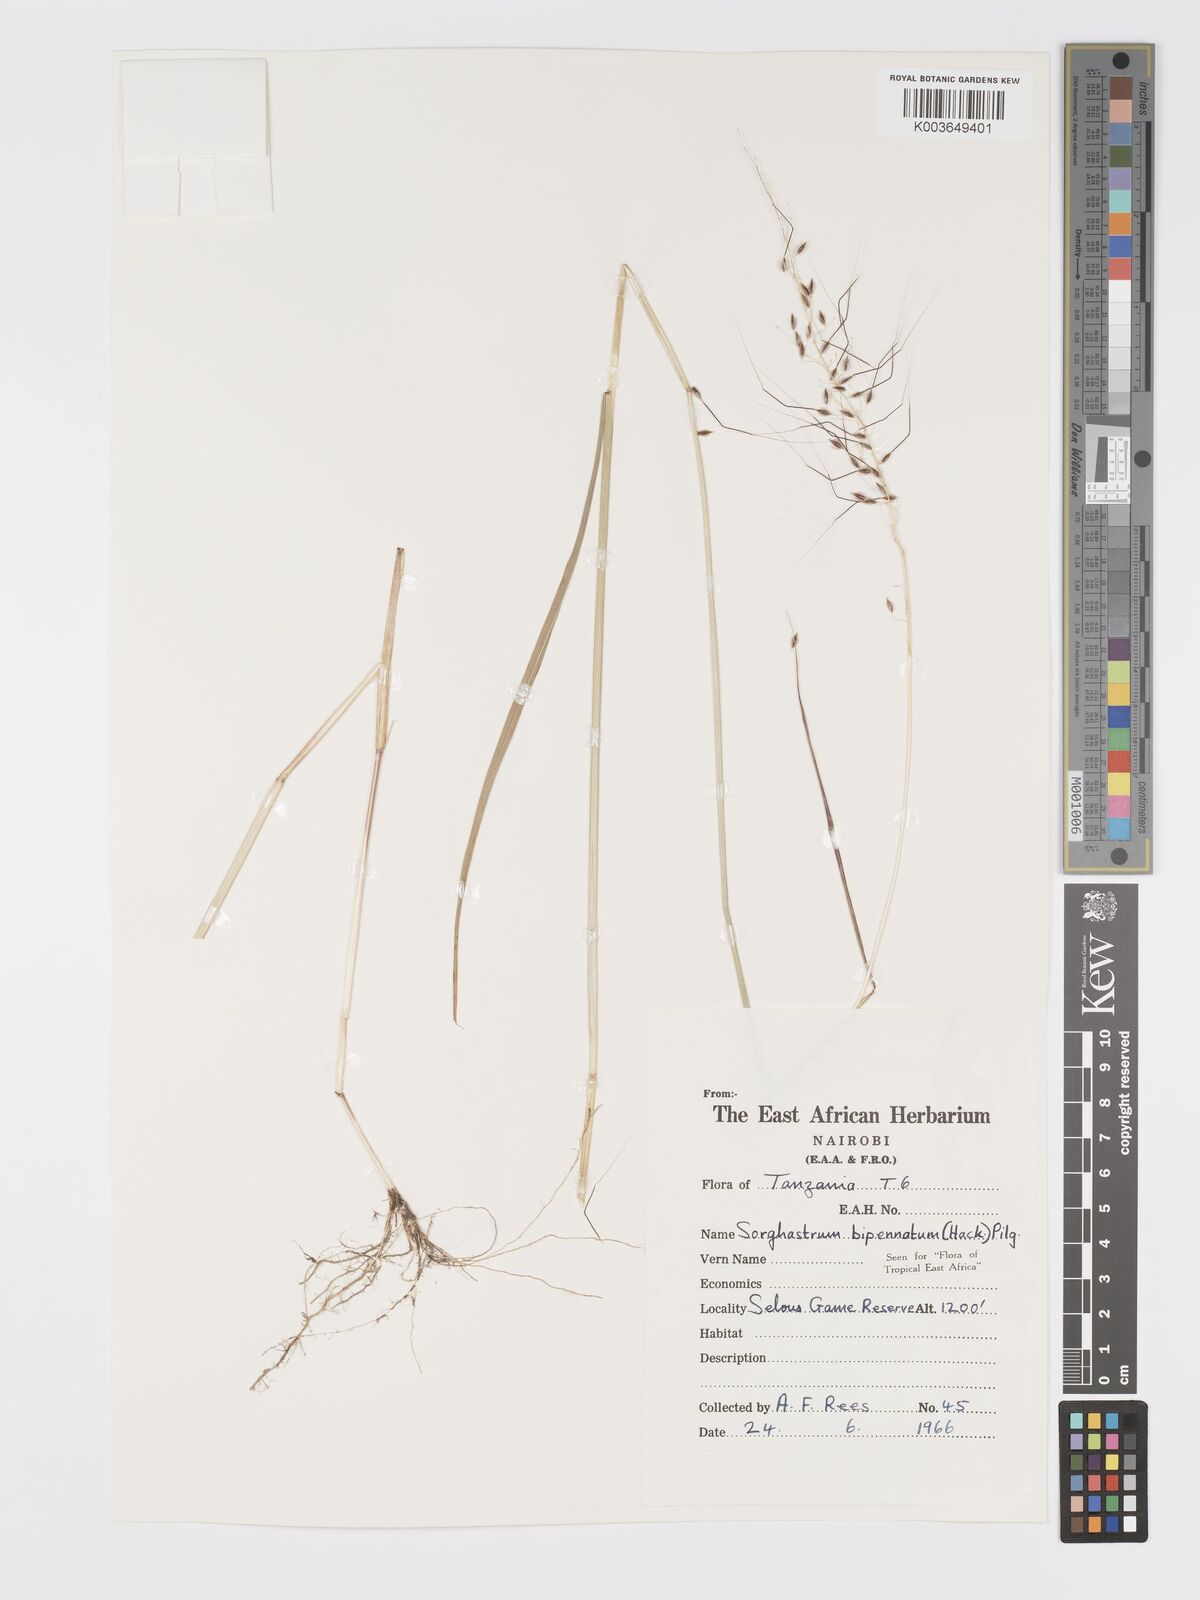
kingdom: Plantae
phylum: Tracheophyta
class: Liliopsida
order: Poales
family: Poaceae
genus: Sorghastrum
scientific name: Sorghastrum incompletum
